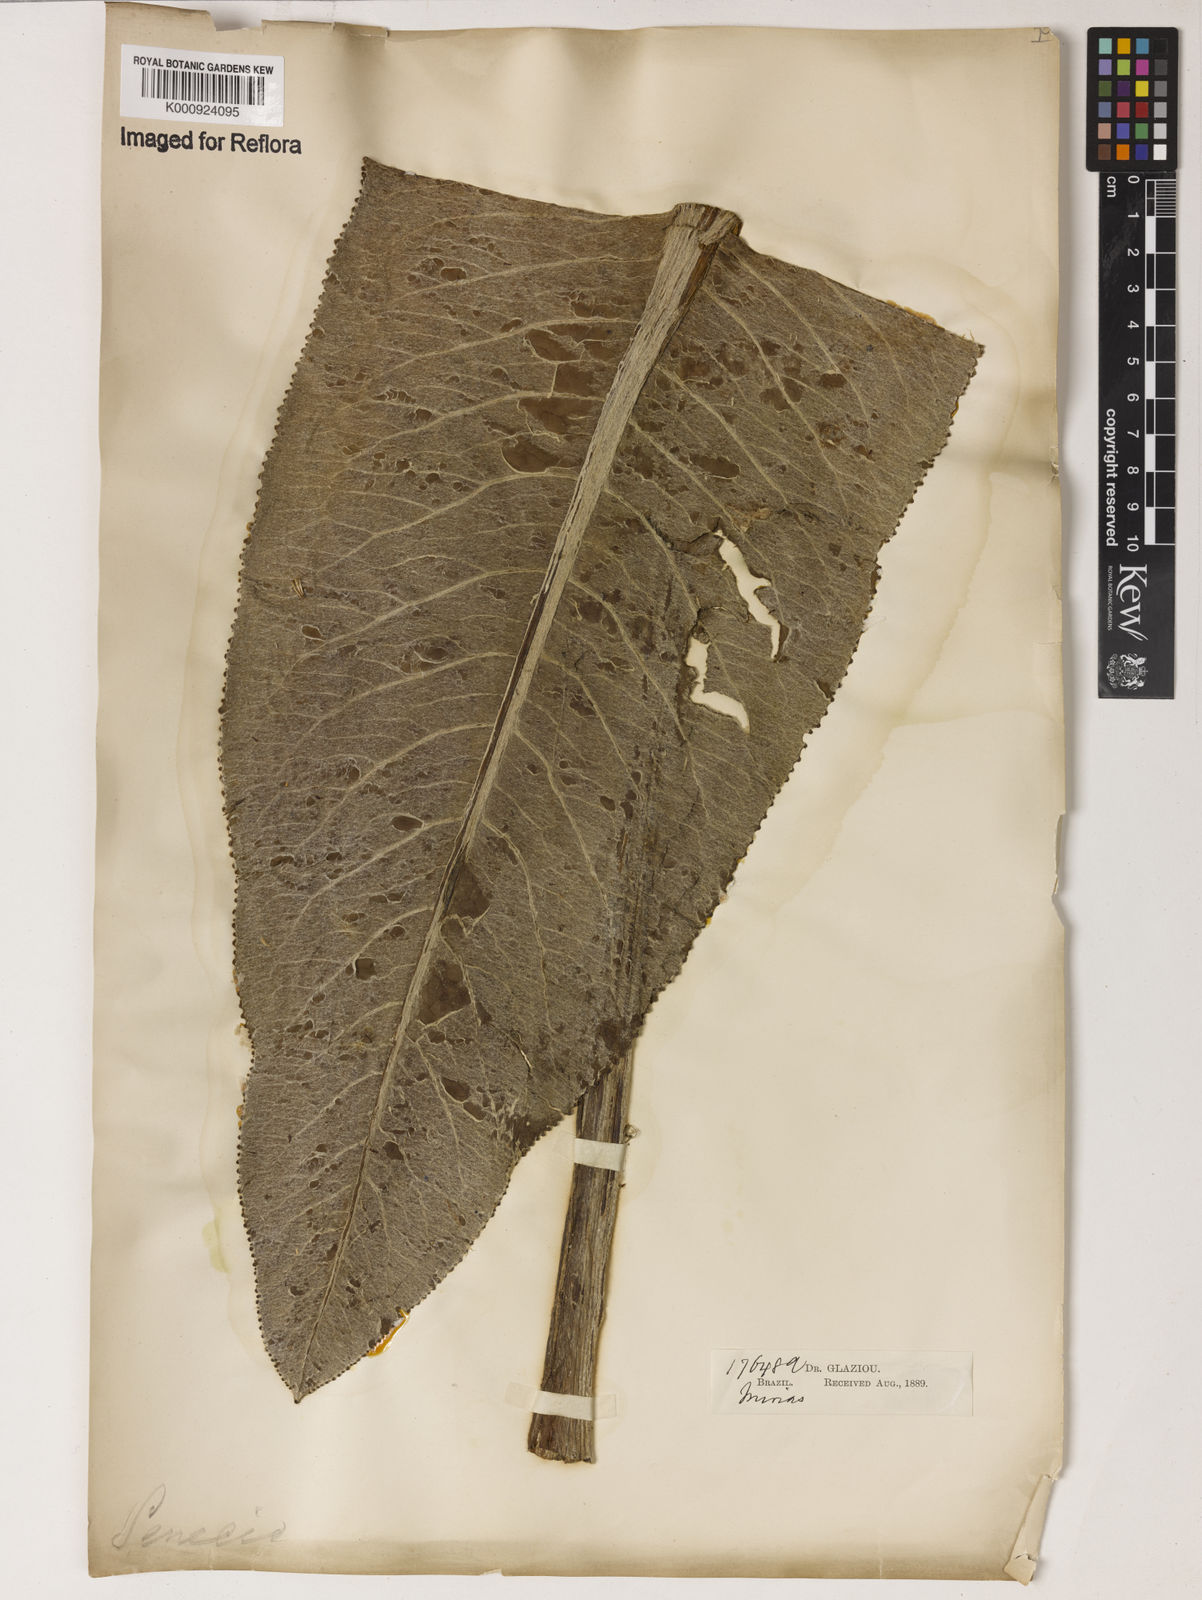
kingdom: Plantae
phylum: Tracheophyta
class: Magnoliopsida
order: Asterales
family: Asteraceae
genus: Senecio
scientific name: Senecio icoglossus
